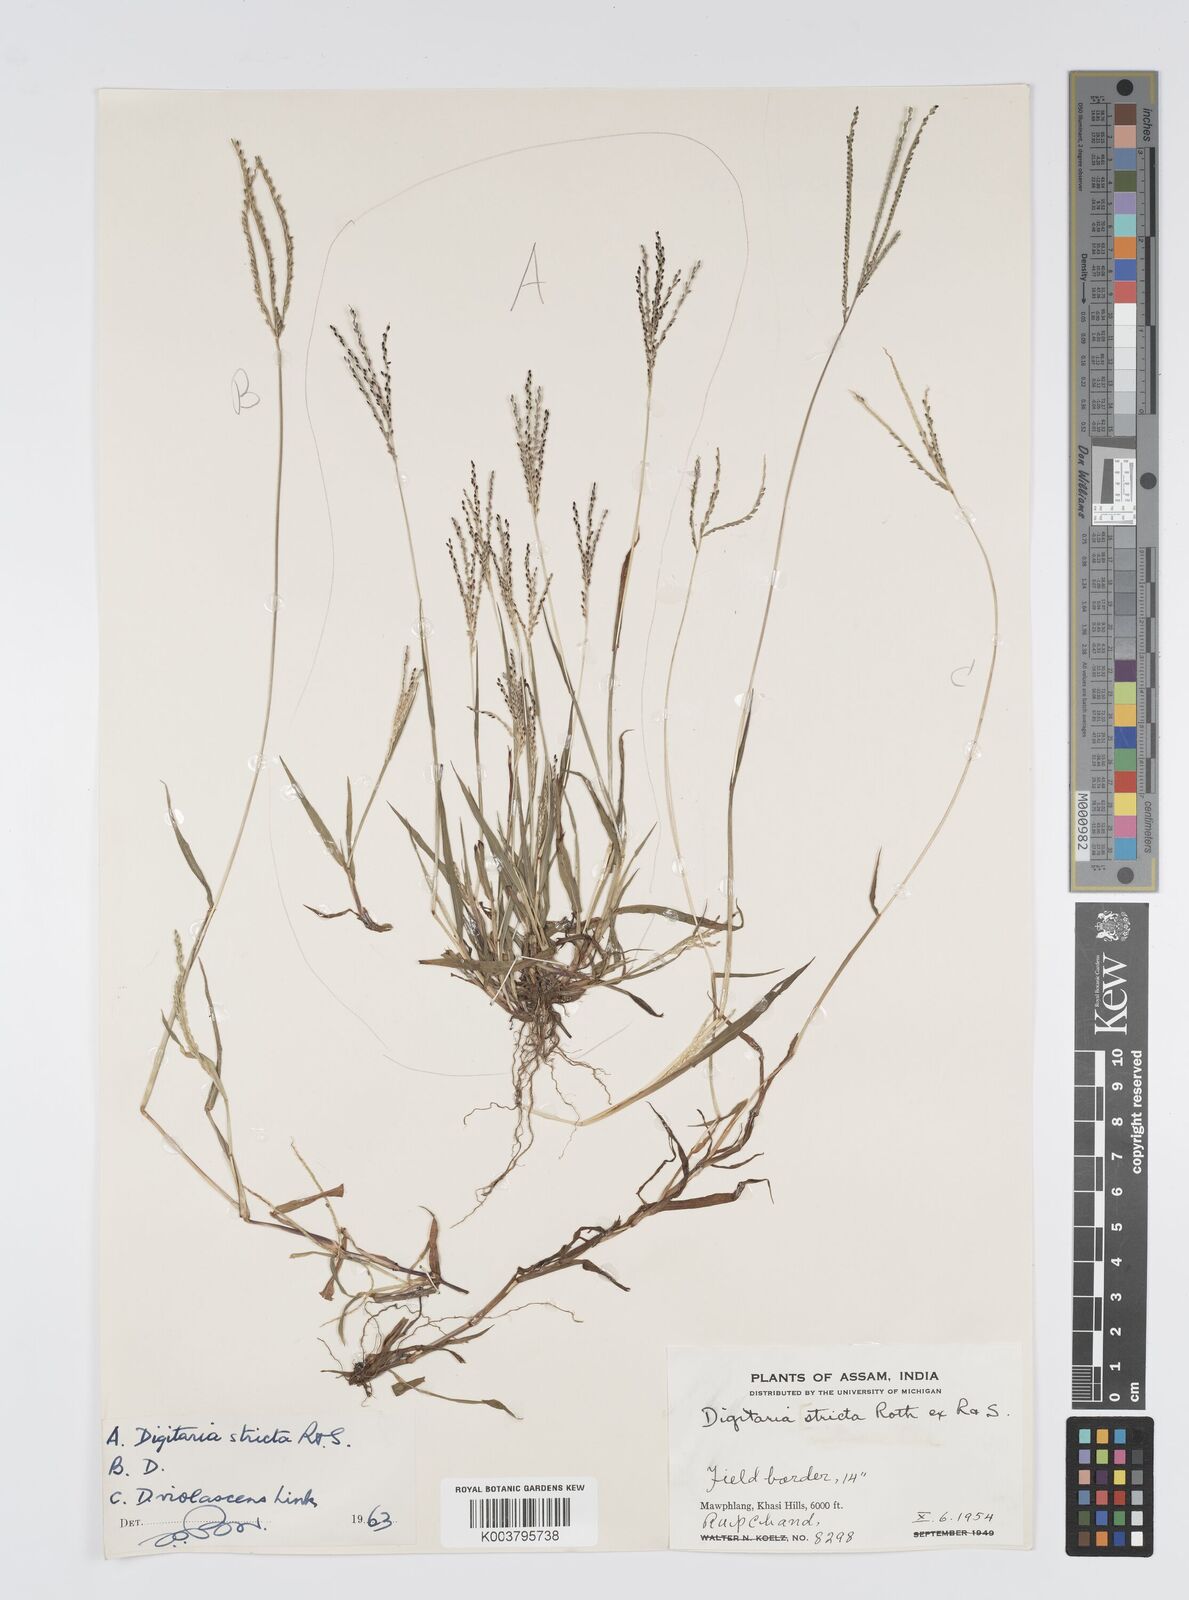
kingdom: Plantae
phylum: Tracheophyta
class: Liliopsida
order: Poales
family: Poaceae
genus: Digitaria
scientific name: Digitaria violascens
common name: Violet crabgrass
